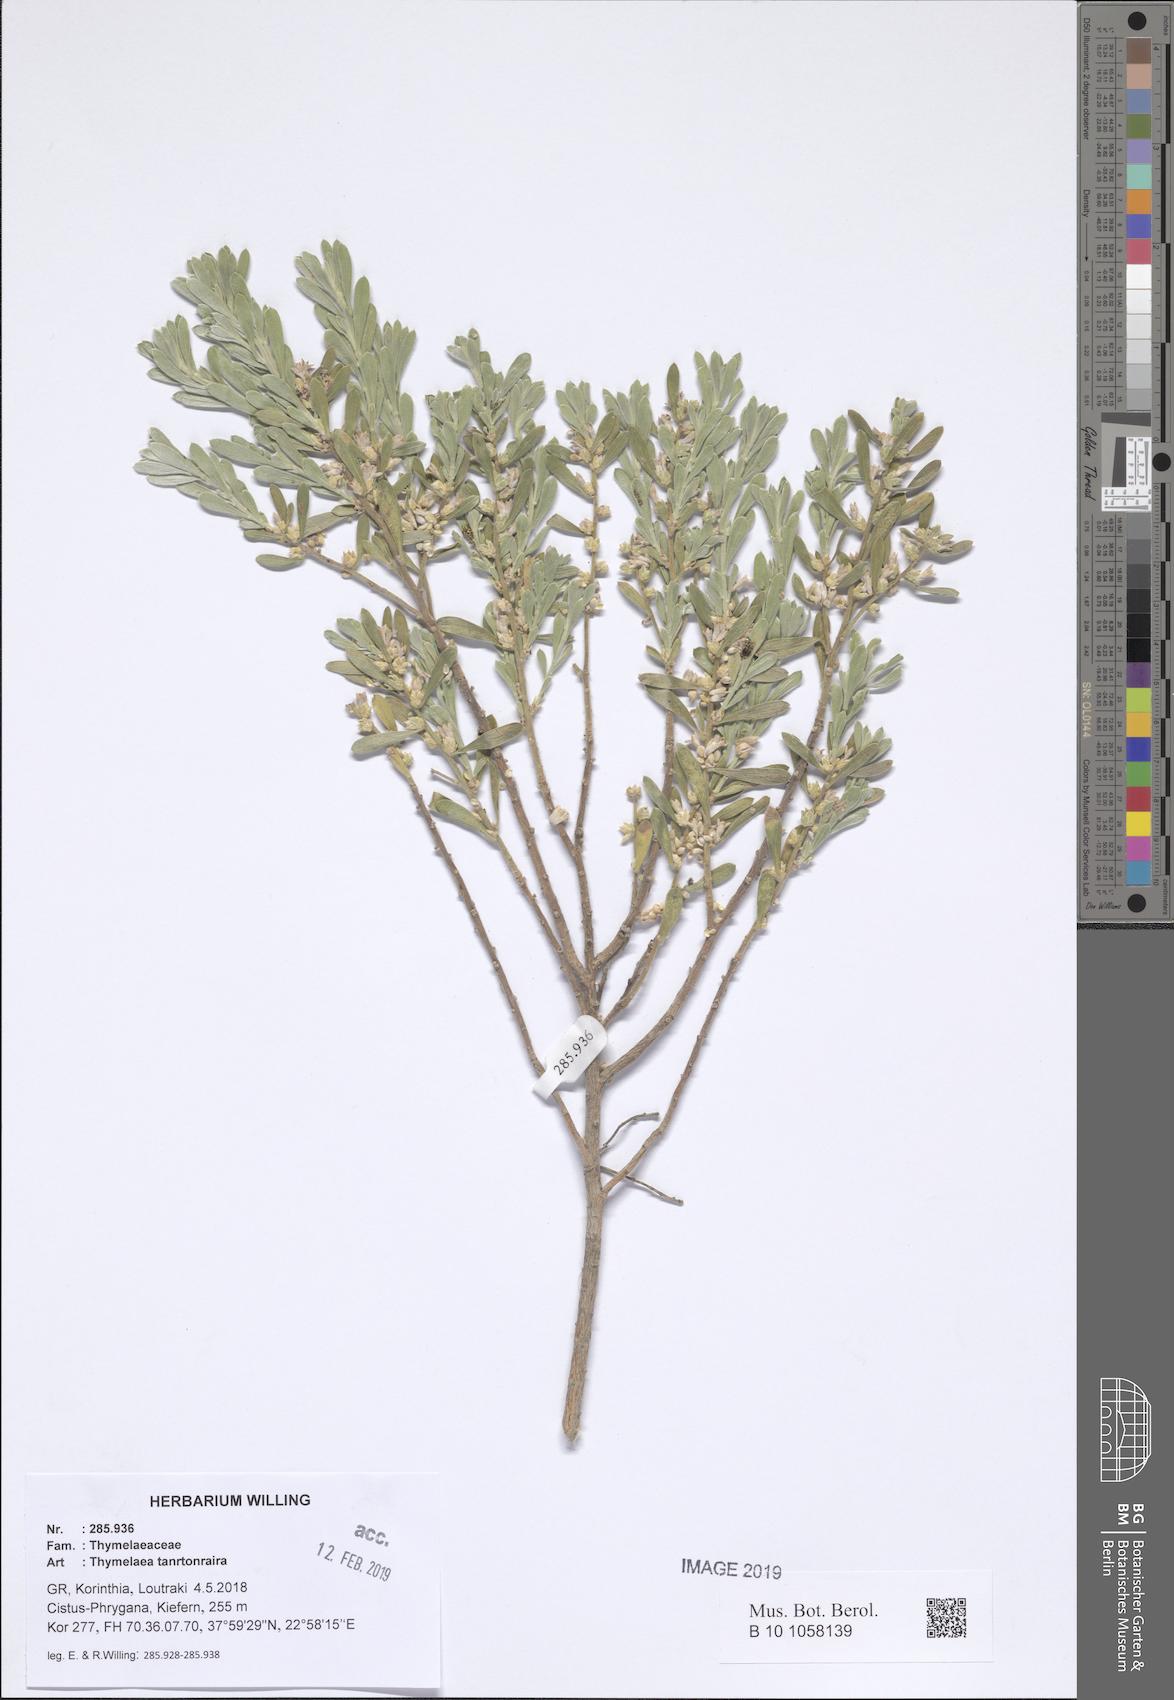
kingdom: Plantae
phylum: Tracheophyta
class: Magnoliopsida
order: Malvales
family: Thymelaeaceae
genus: Thymelaea
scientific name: Thymelaea tartonraira
